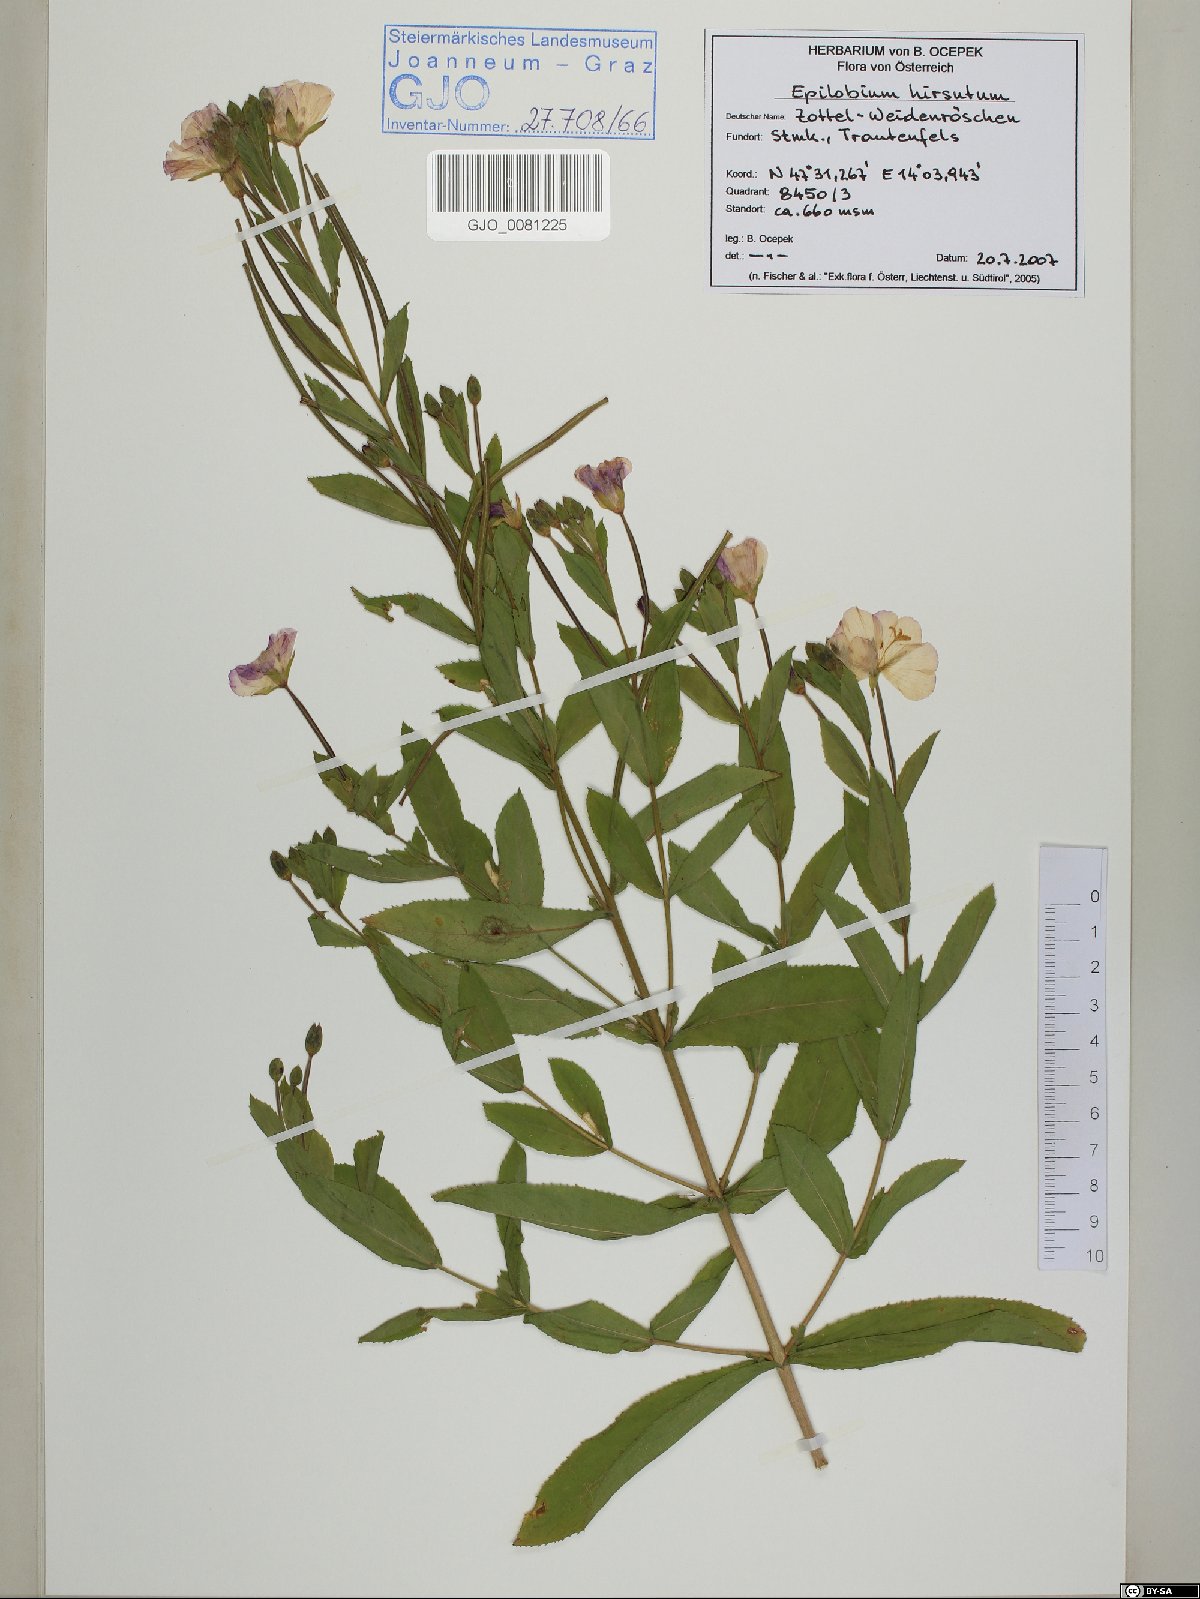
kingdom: Plantae
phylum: Tracheophyta
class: Magnoliopsida
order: Myrtales
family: Onagraceae
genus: Epilobium
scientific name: Epilobium hirsutum
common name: Great willowherb
